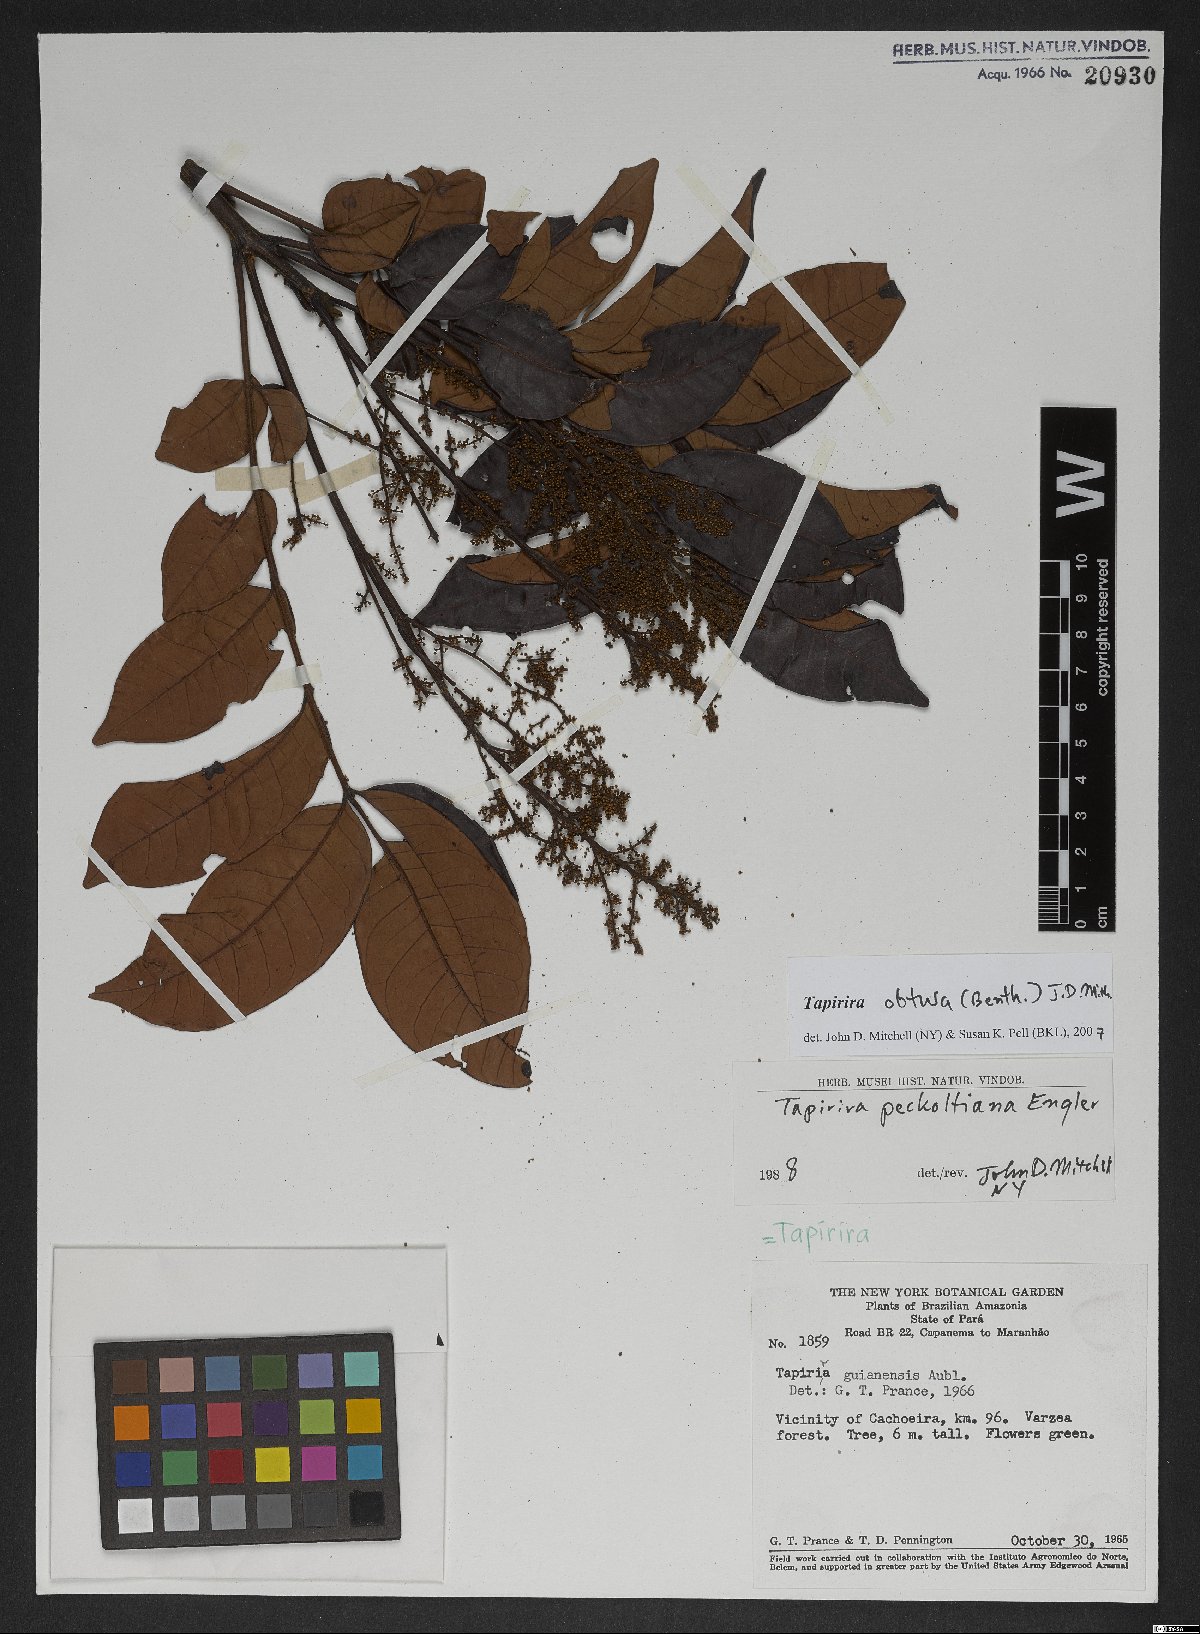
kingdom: Plantae
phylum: Tracheophyta
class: Magnoliopsida
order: Sapindales
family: Anacardiaceae
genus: Tapirira
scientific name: Tapirira obtusa
